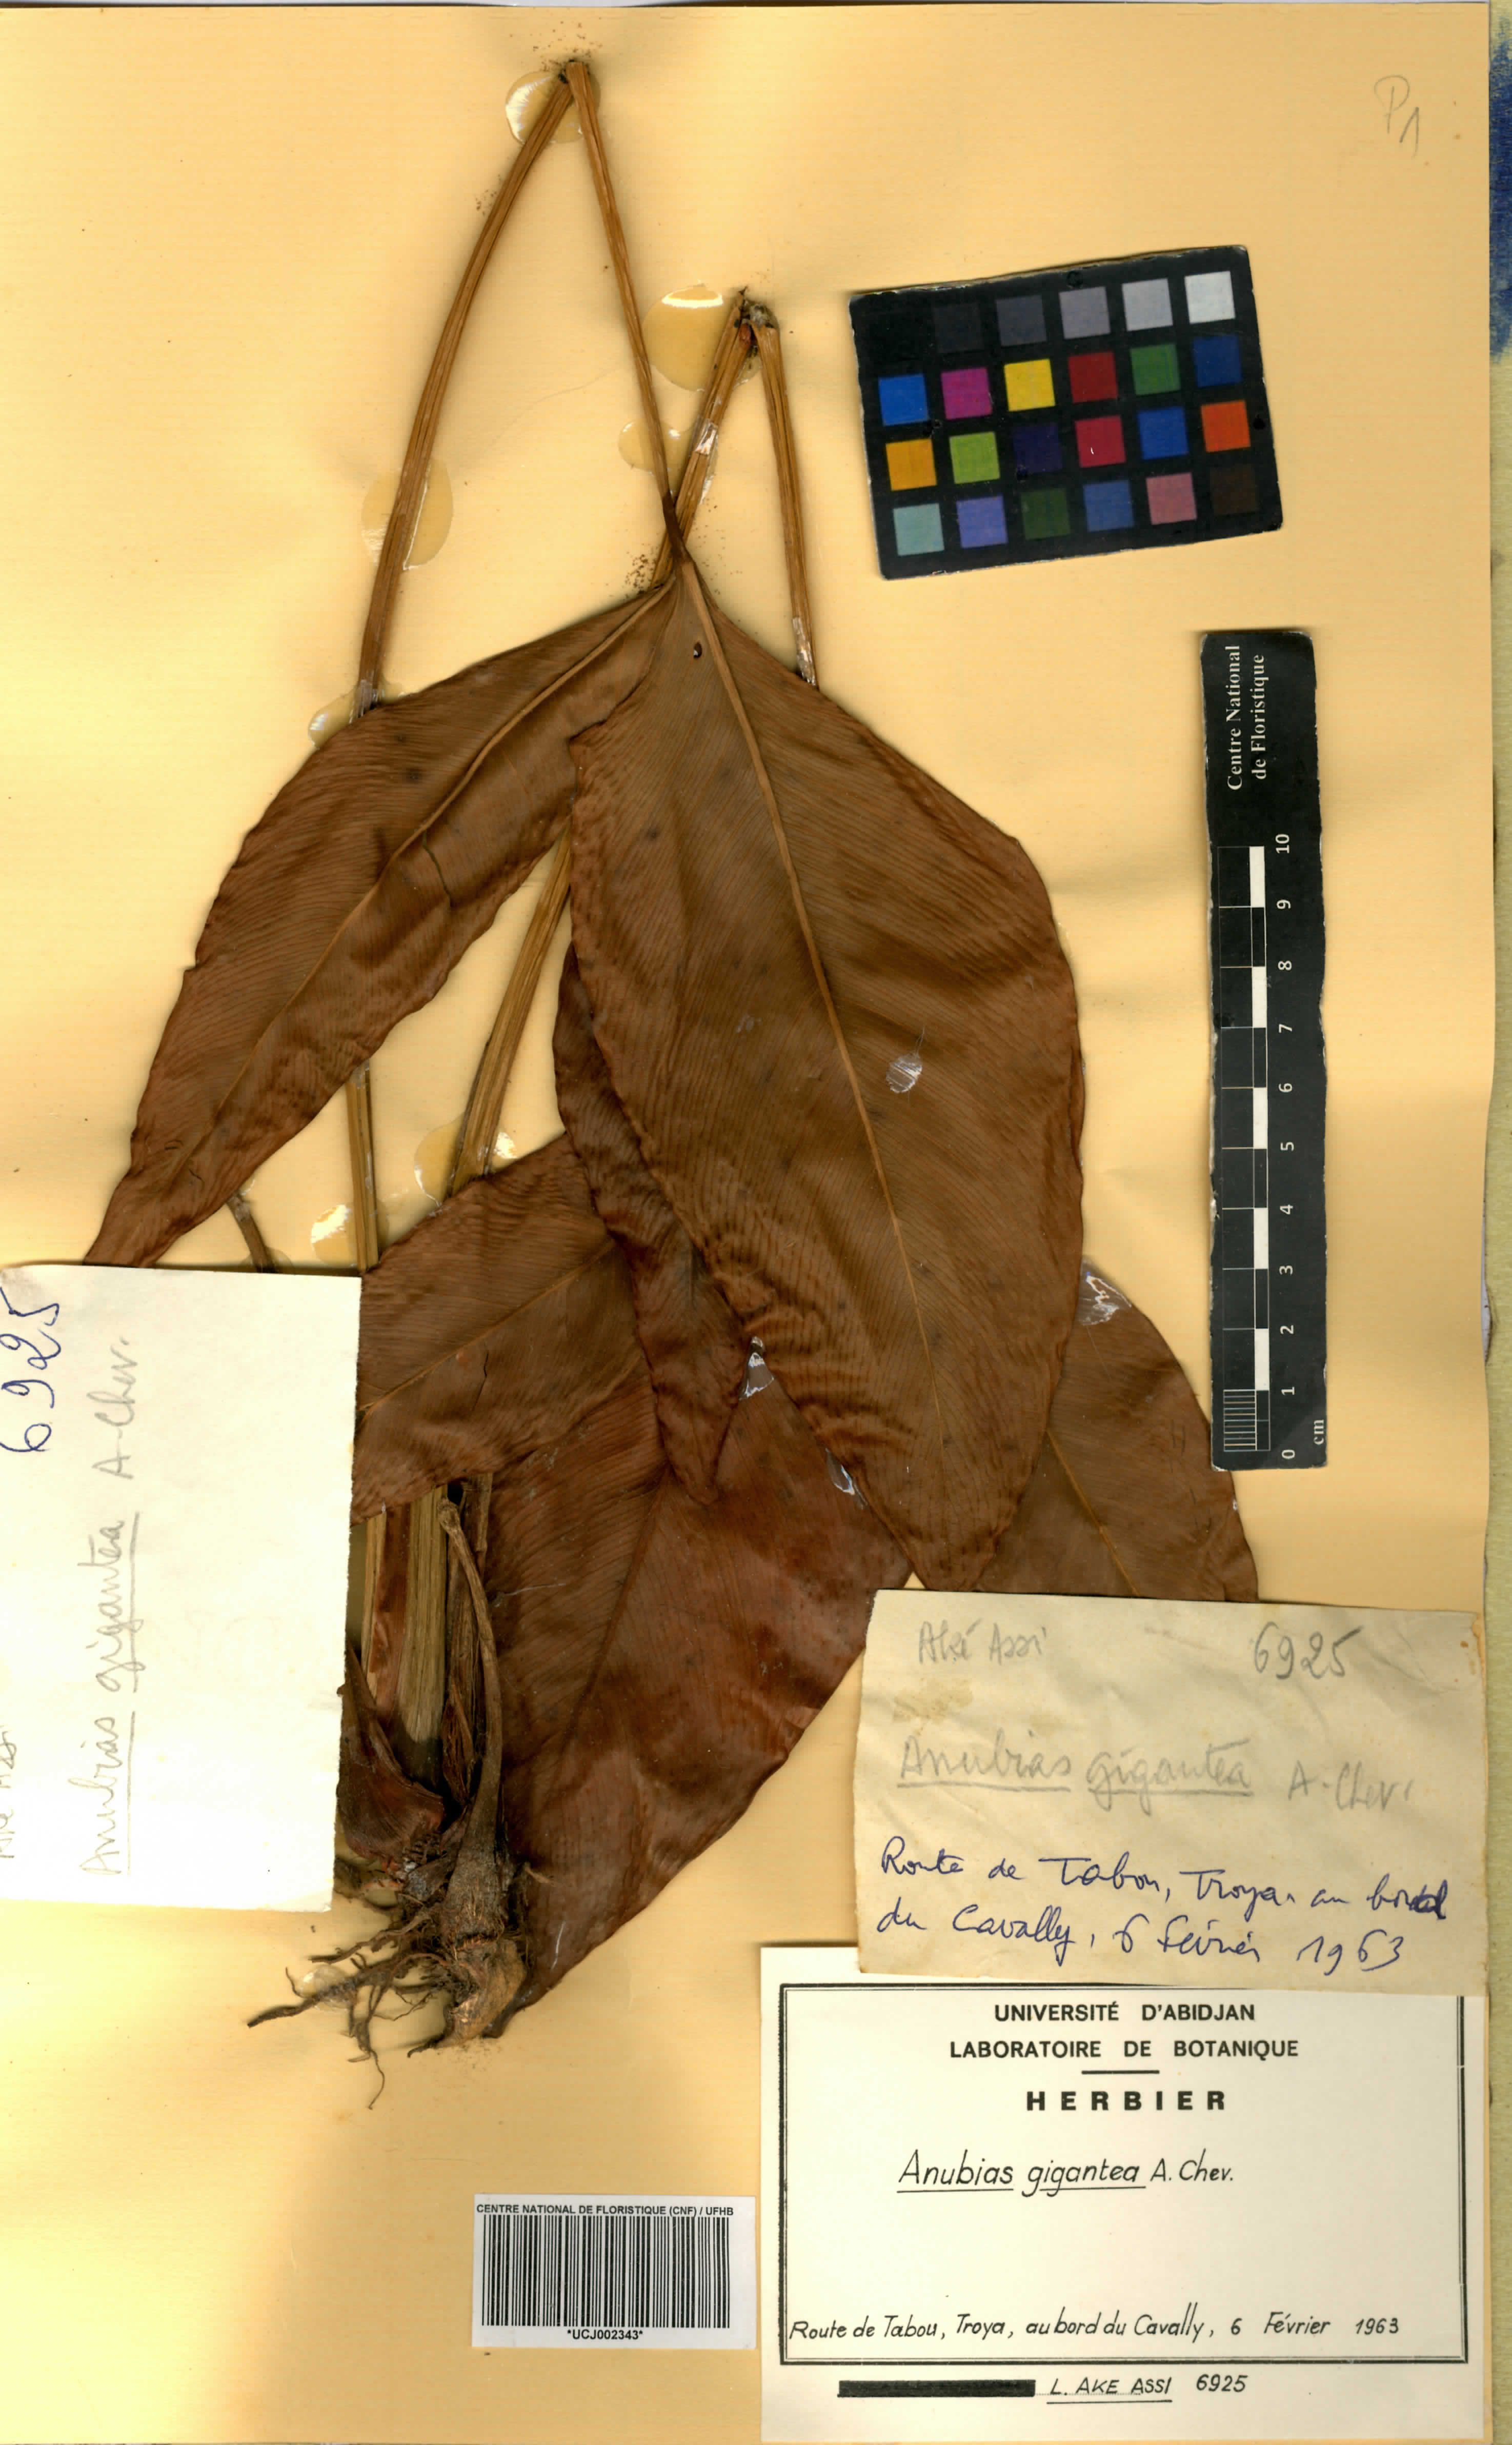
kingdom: Plantae
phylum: Tracheophyta
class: Liliopsida
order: Alismatales
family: Araceae
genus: Anubias
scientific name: Anubias gigantea
